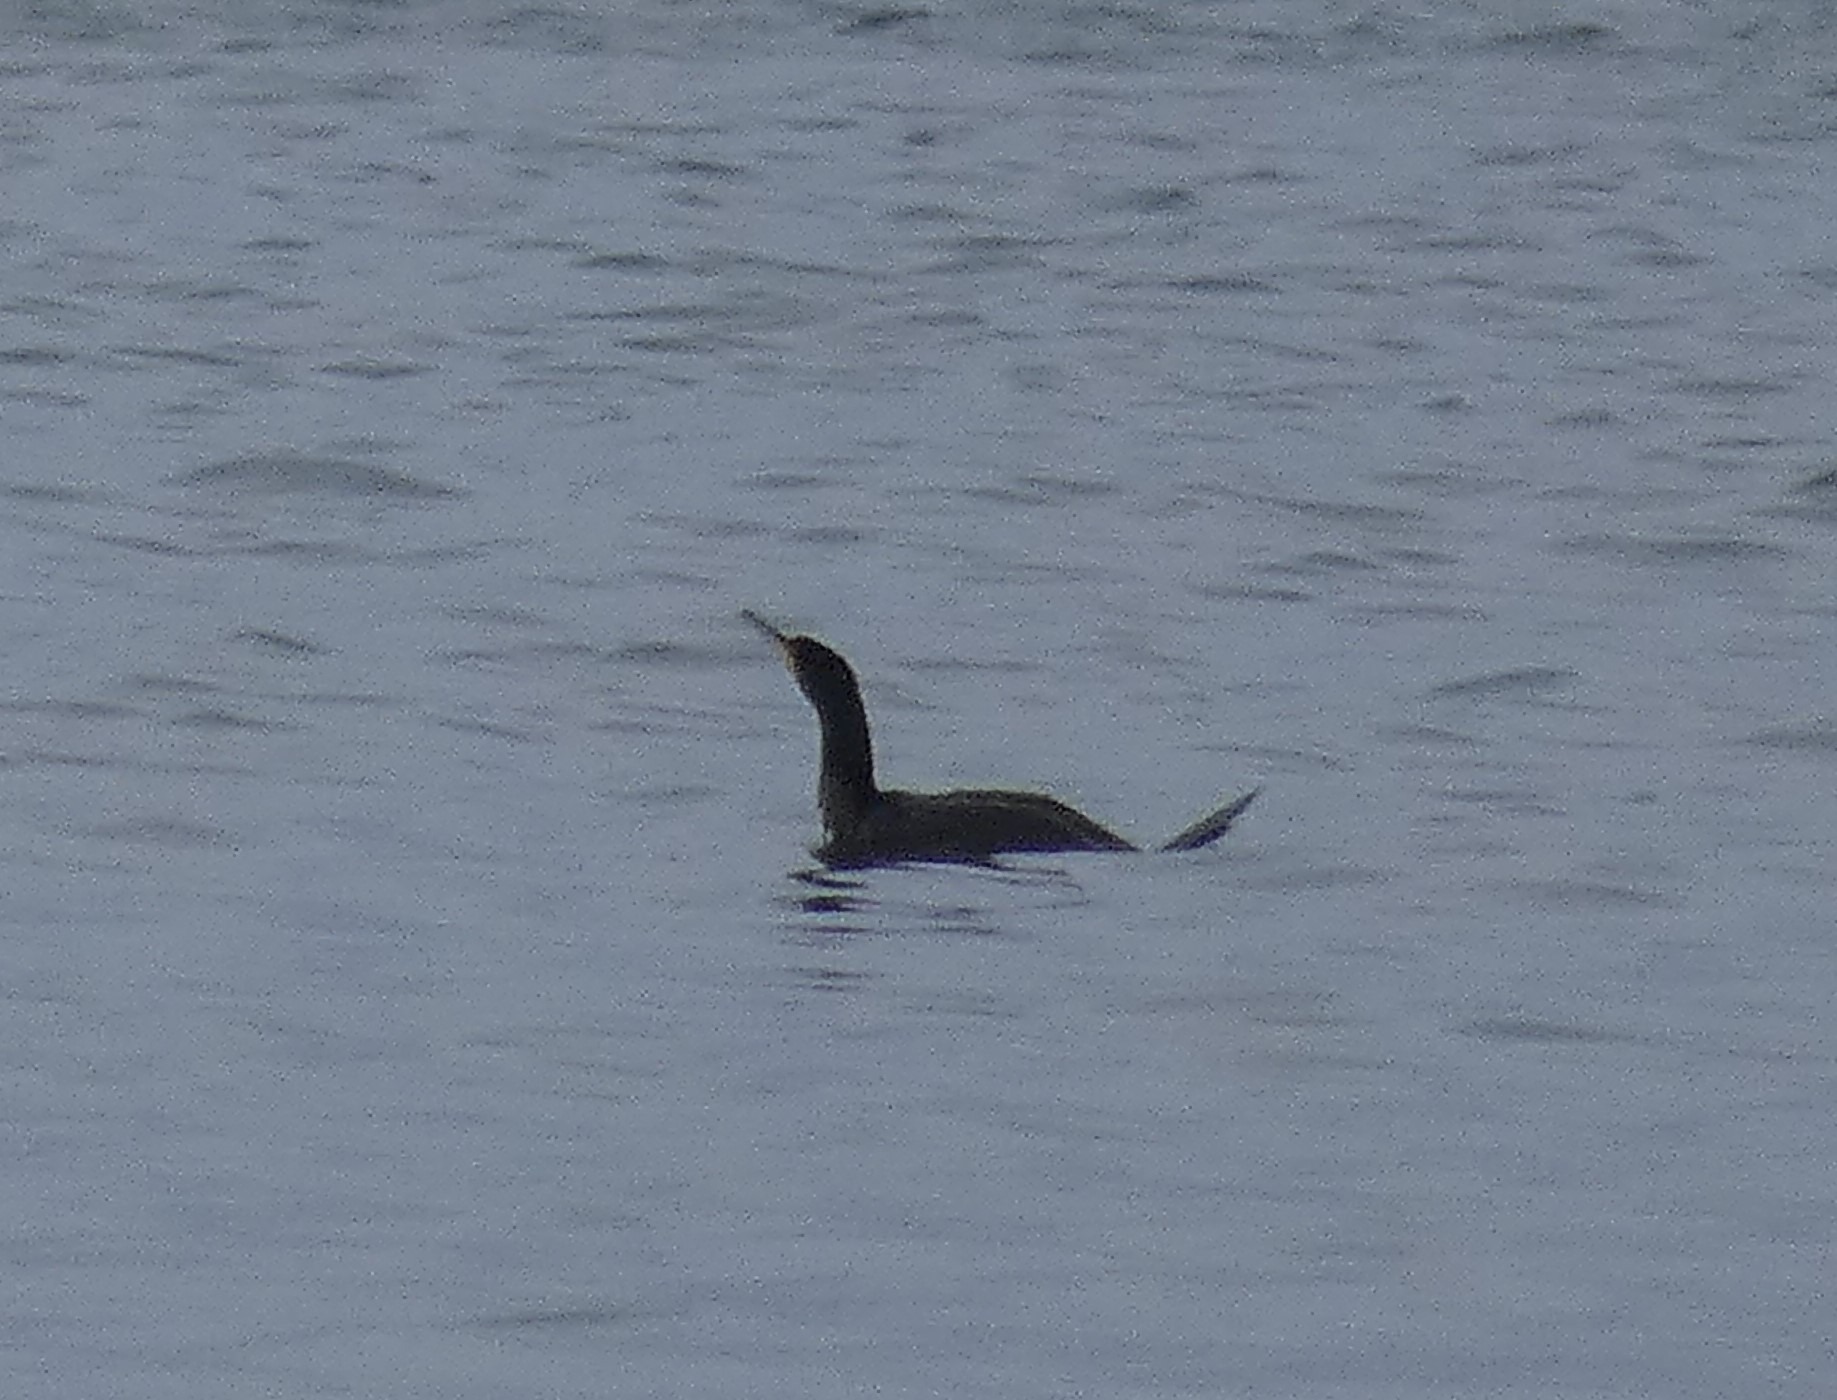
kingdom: Animalia
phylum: Chordata
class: Aves
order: Suliformes
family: Phalacrocoracidae
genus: Phalacrocorax
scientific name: Phalacrocorax carbo
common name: Skarv
